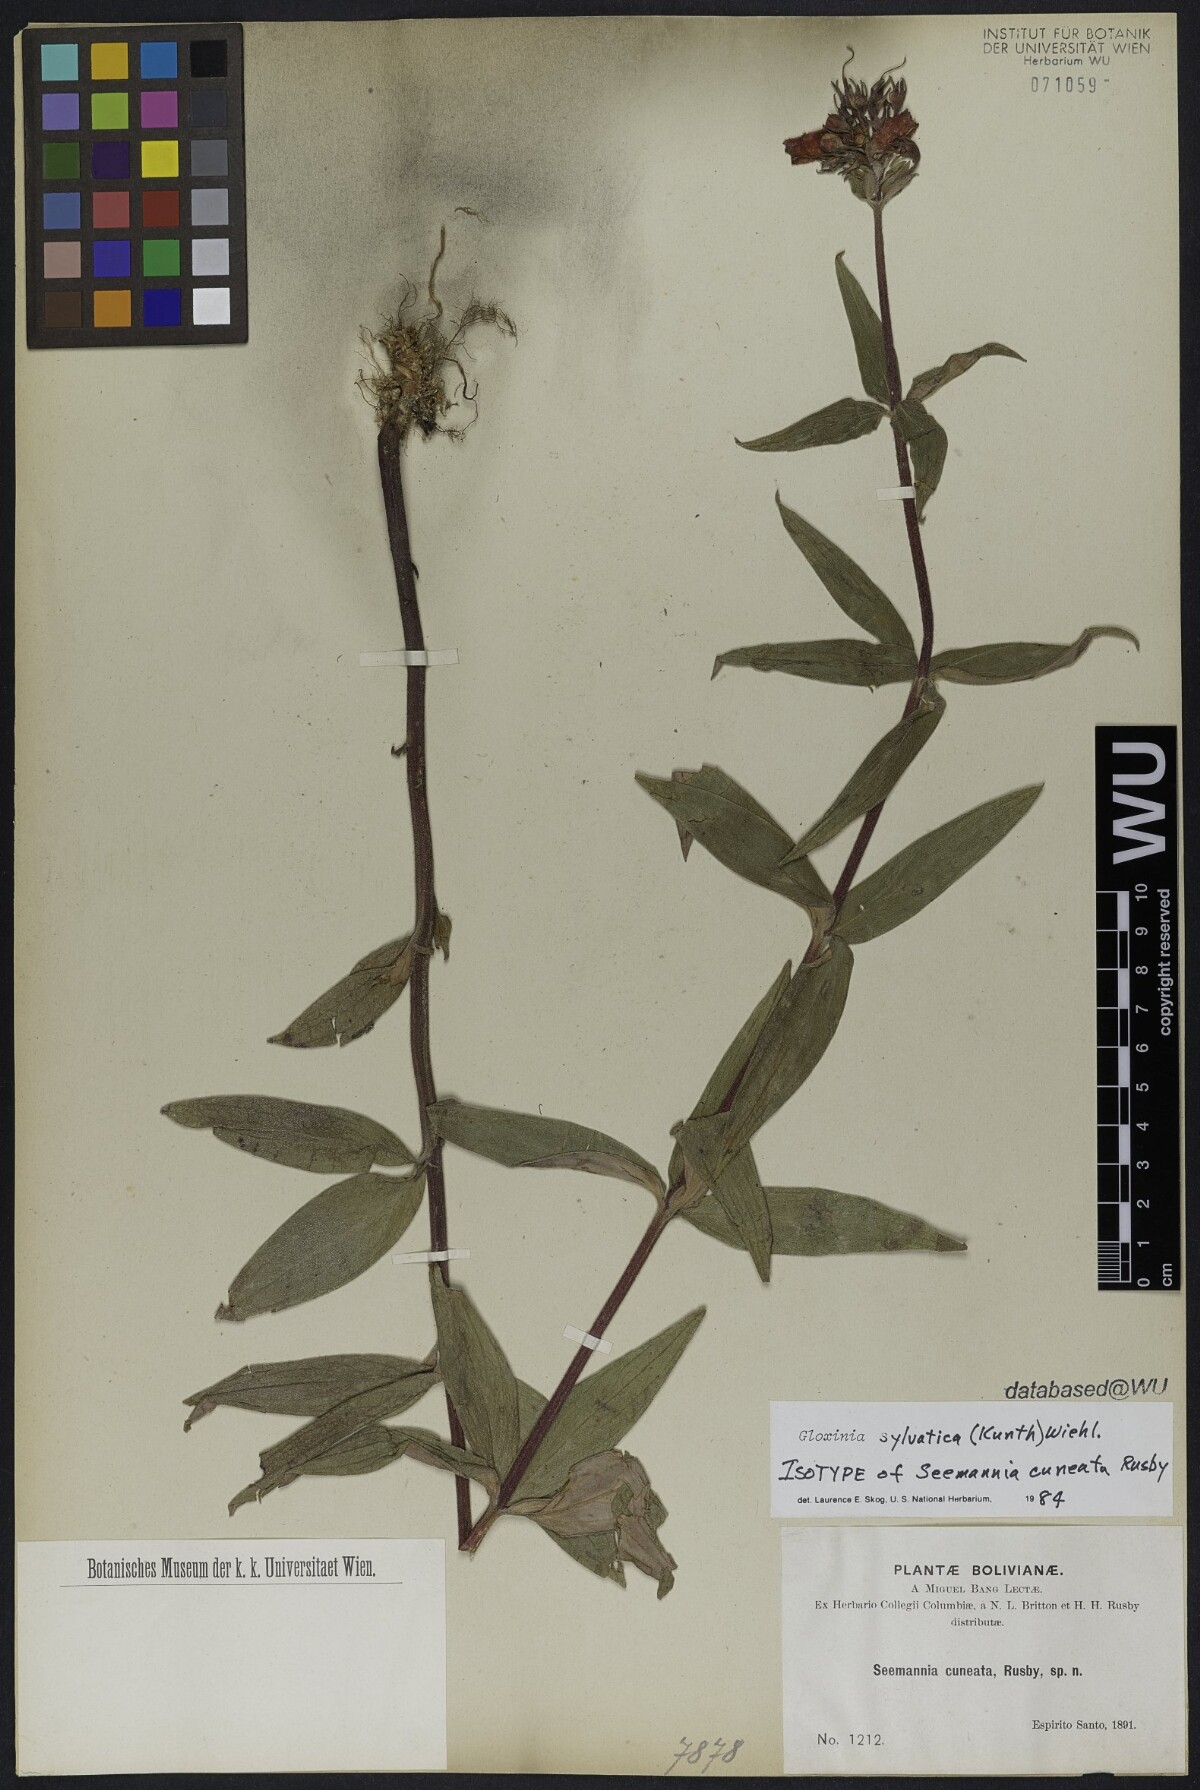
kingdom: Plantae
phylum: Tracheophyta
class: Magnoliopsida
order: Lamiales
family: Gesneriaceae
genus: Seemannia
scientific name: Seemannia sylvatica
